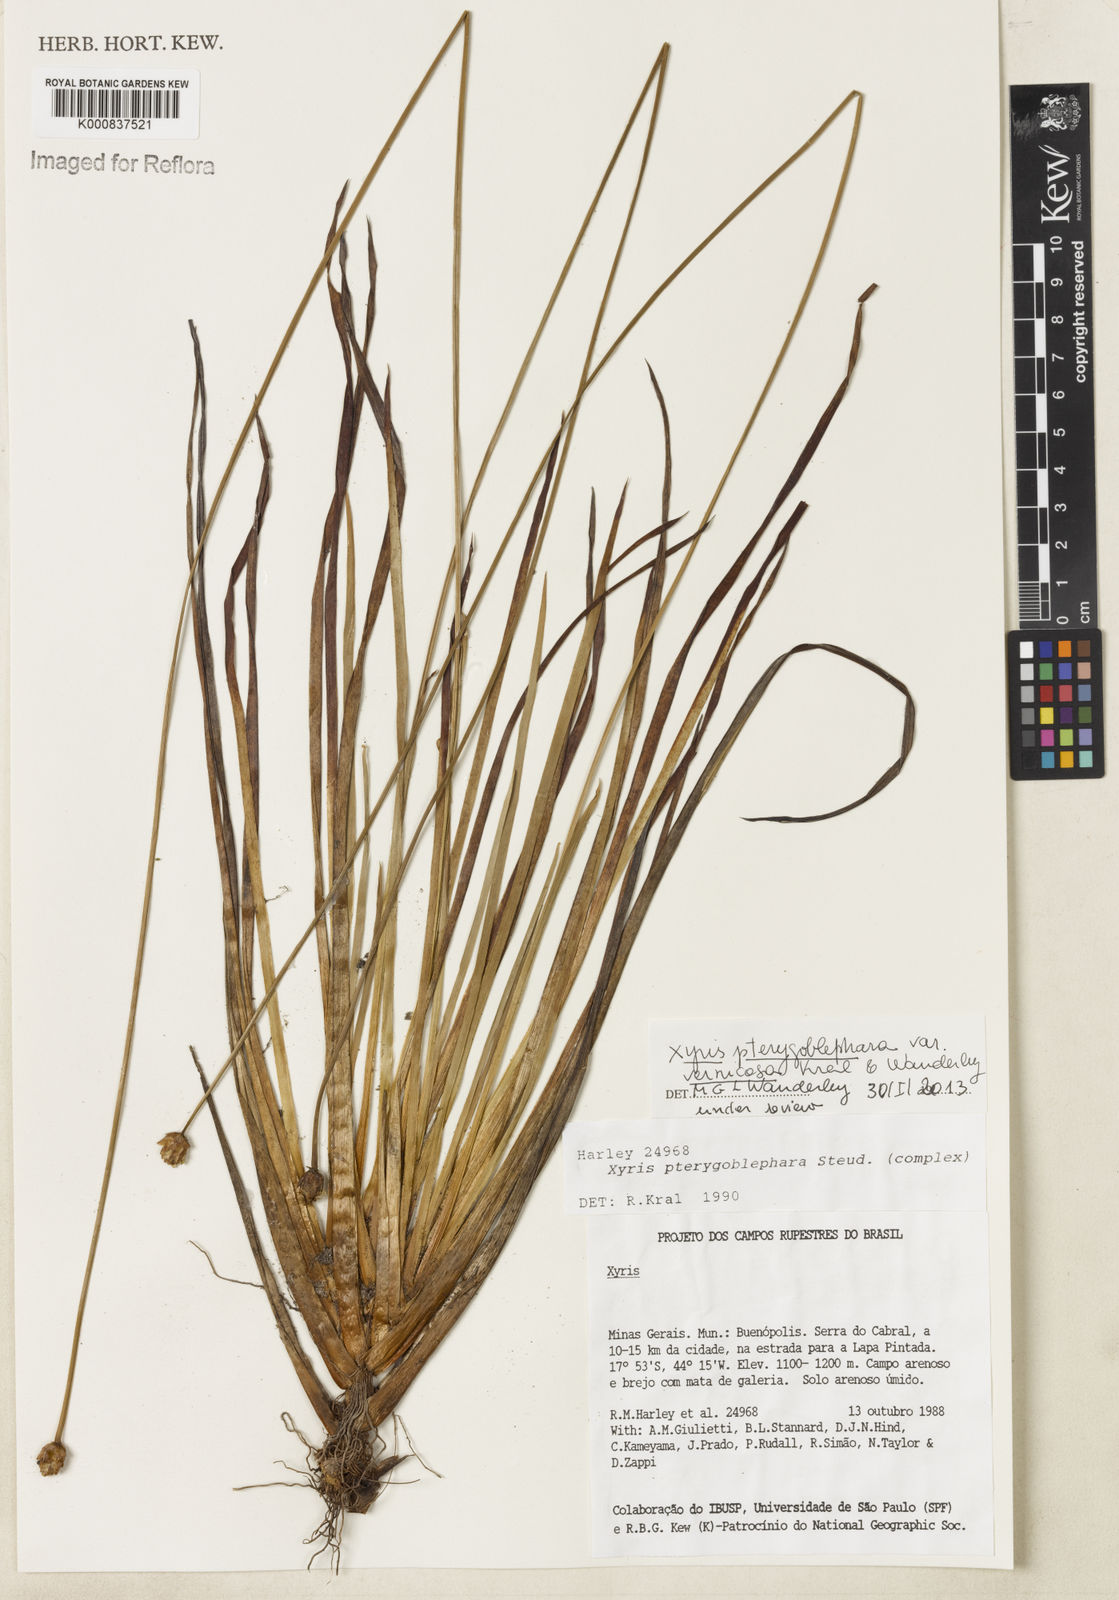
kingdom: Plantae
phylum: Tracheophyta
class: Liliopsida
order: Poales
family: Xyridaceae
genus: Xyris
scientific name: Xyris pterygoblephara
